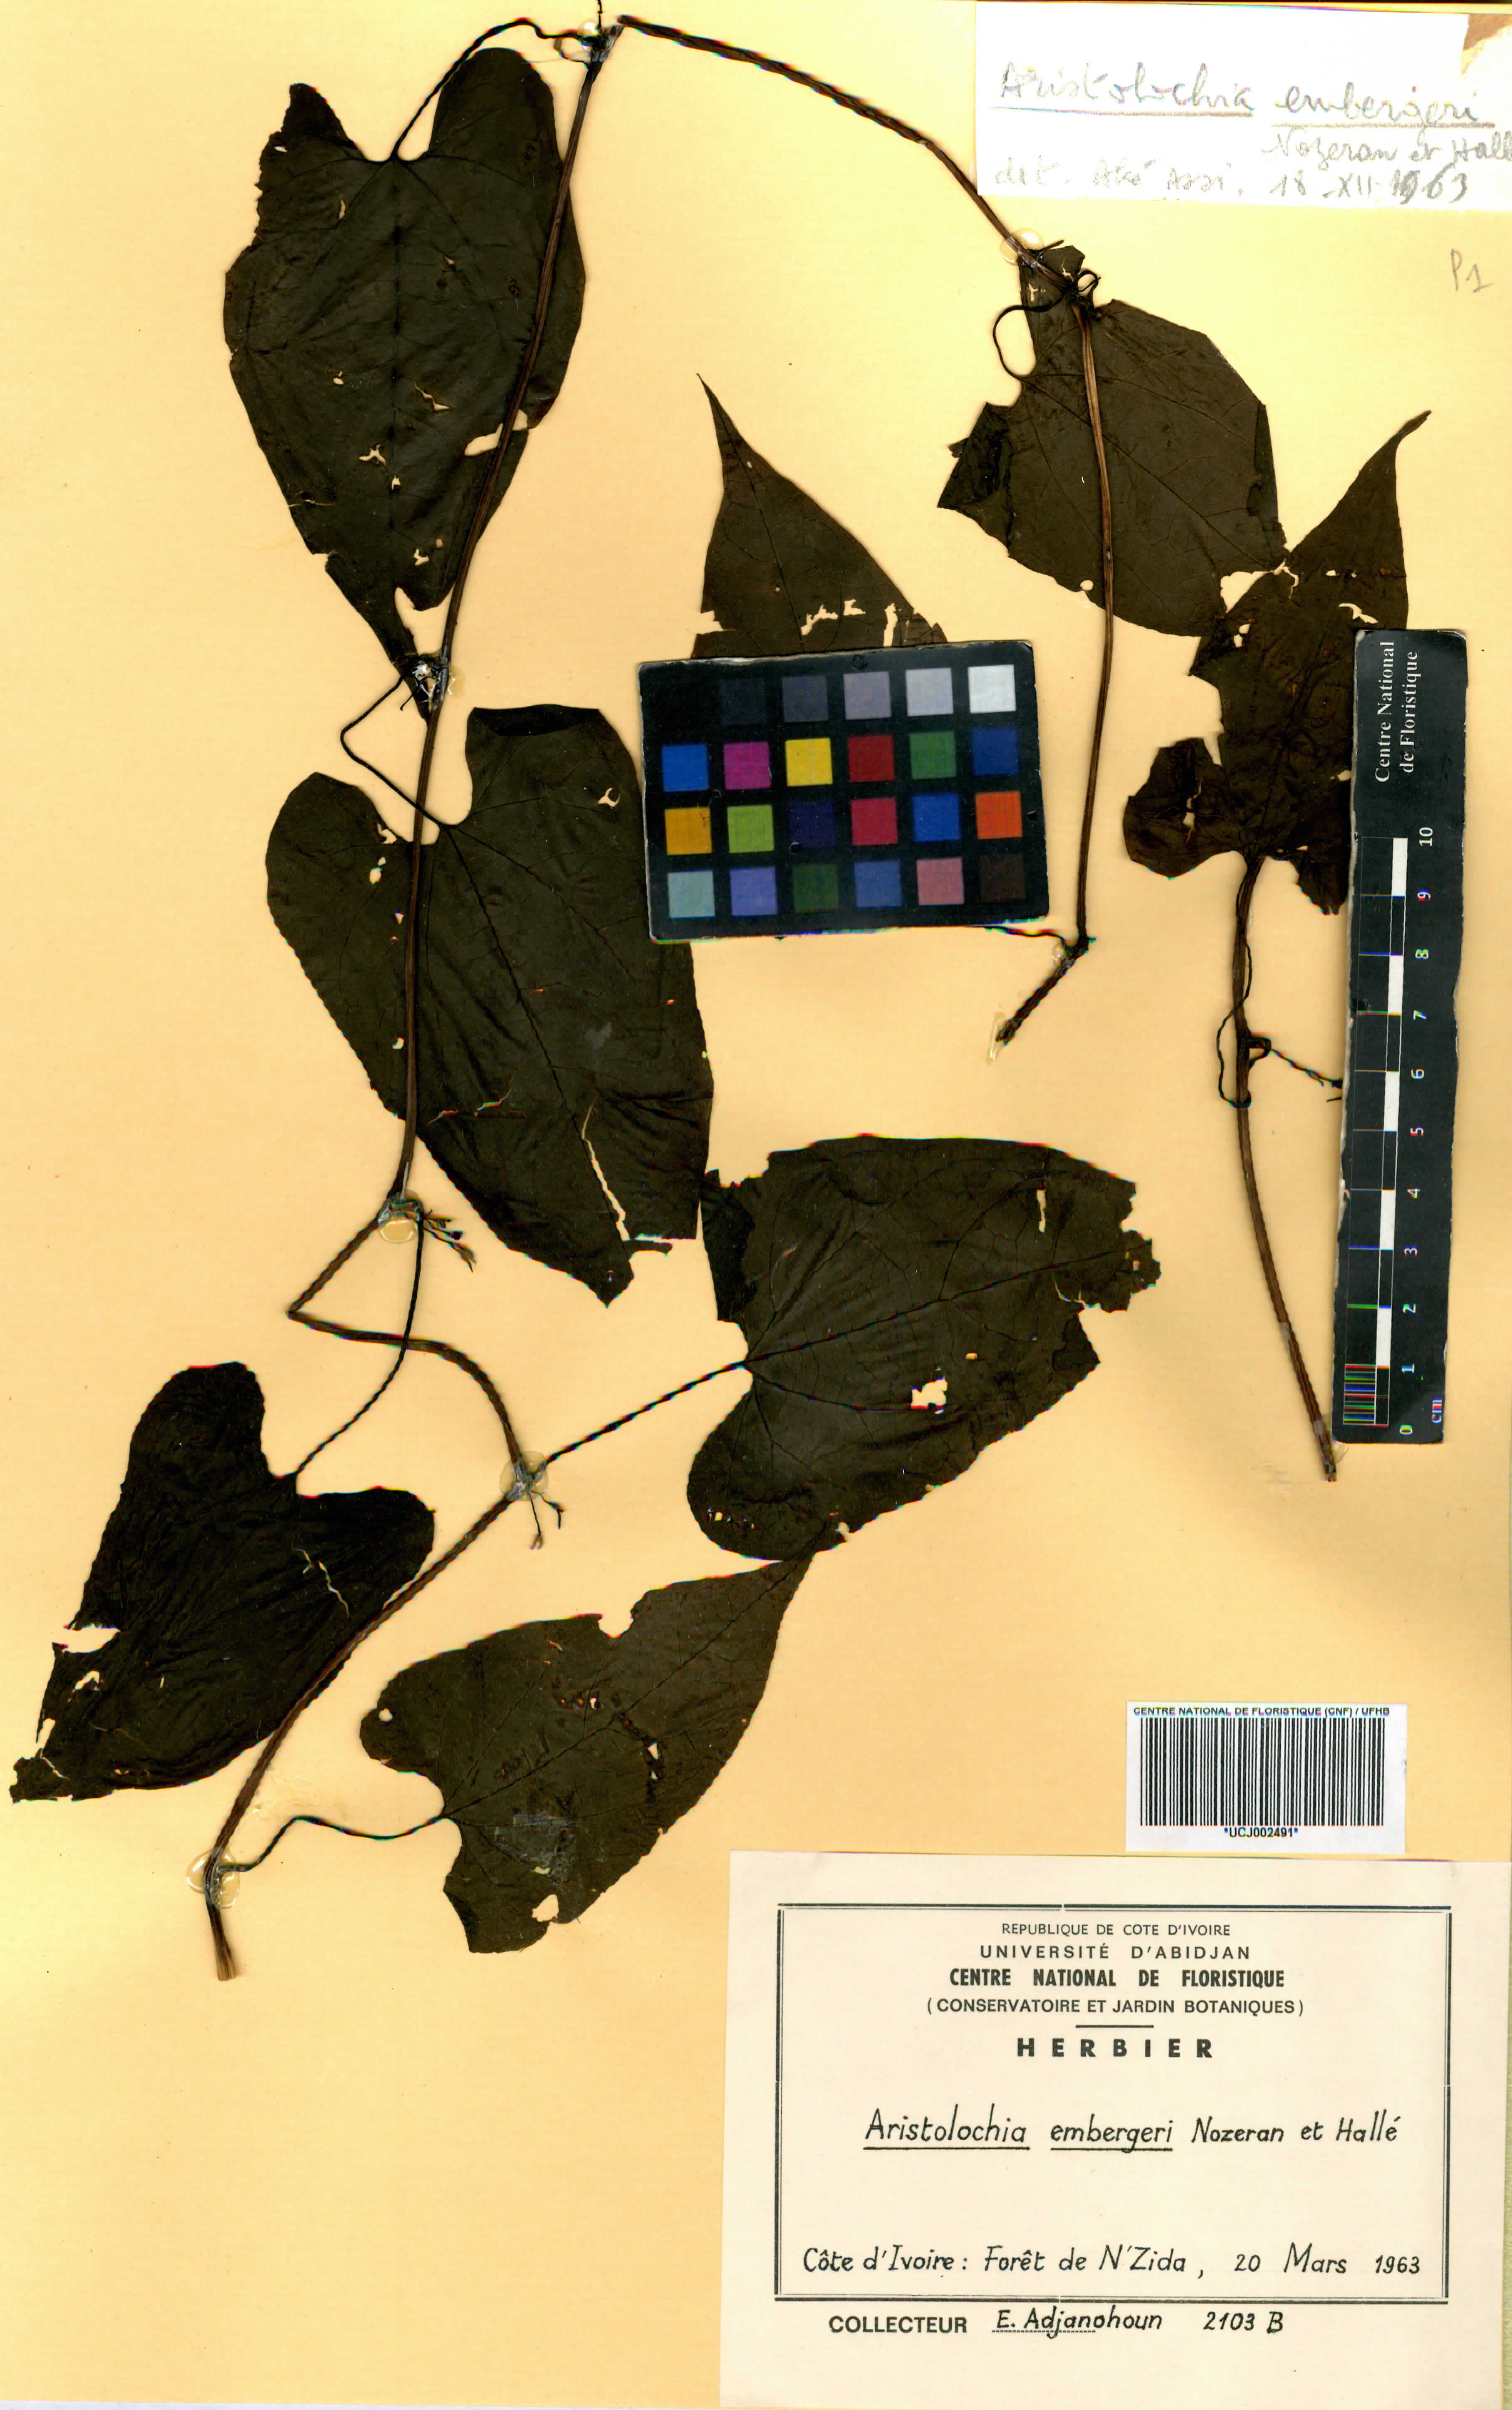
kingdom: Plantae
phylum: Tracheophyta
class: Magnoliopsida
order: Piperales
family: Aristolochiaceae
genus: Aristolochia
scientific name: Aristolochia embergeri
